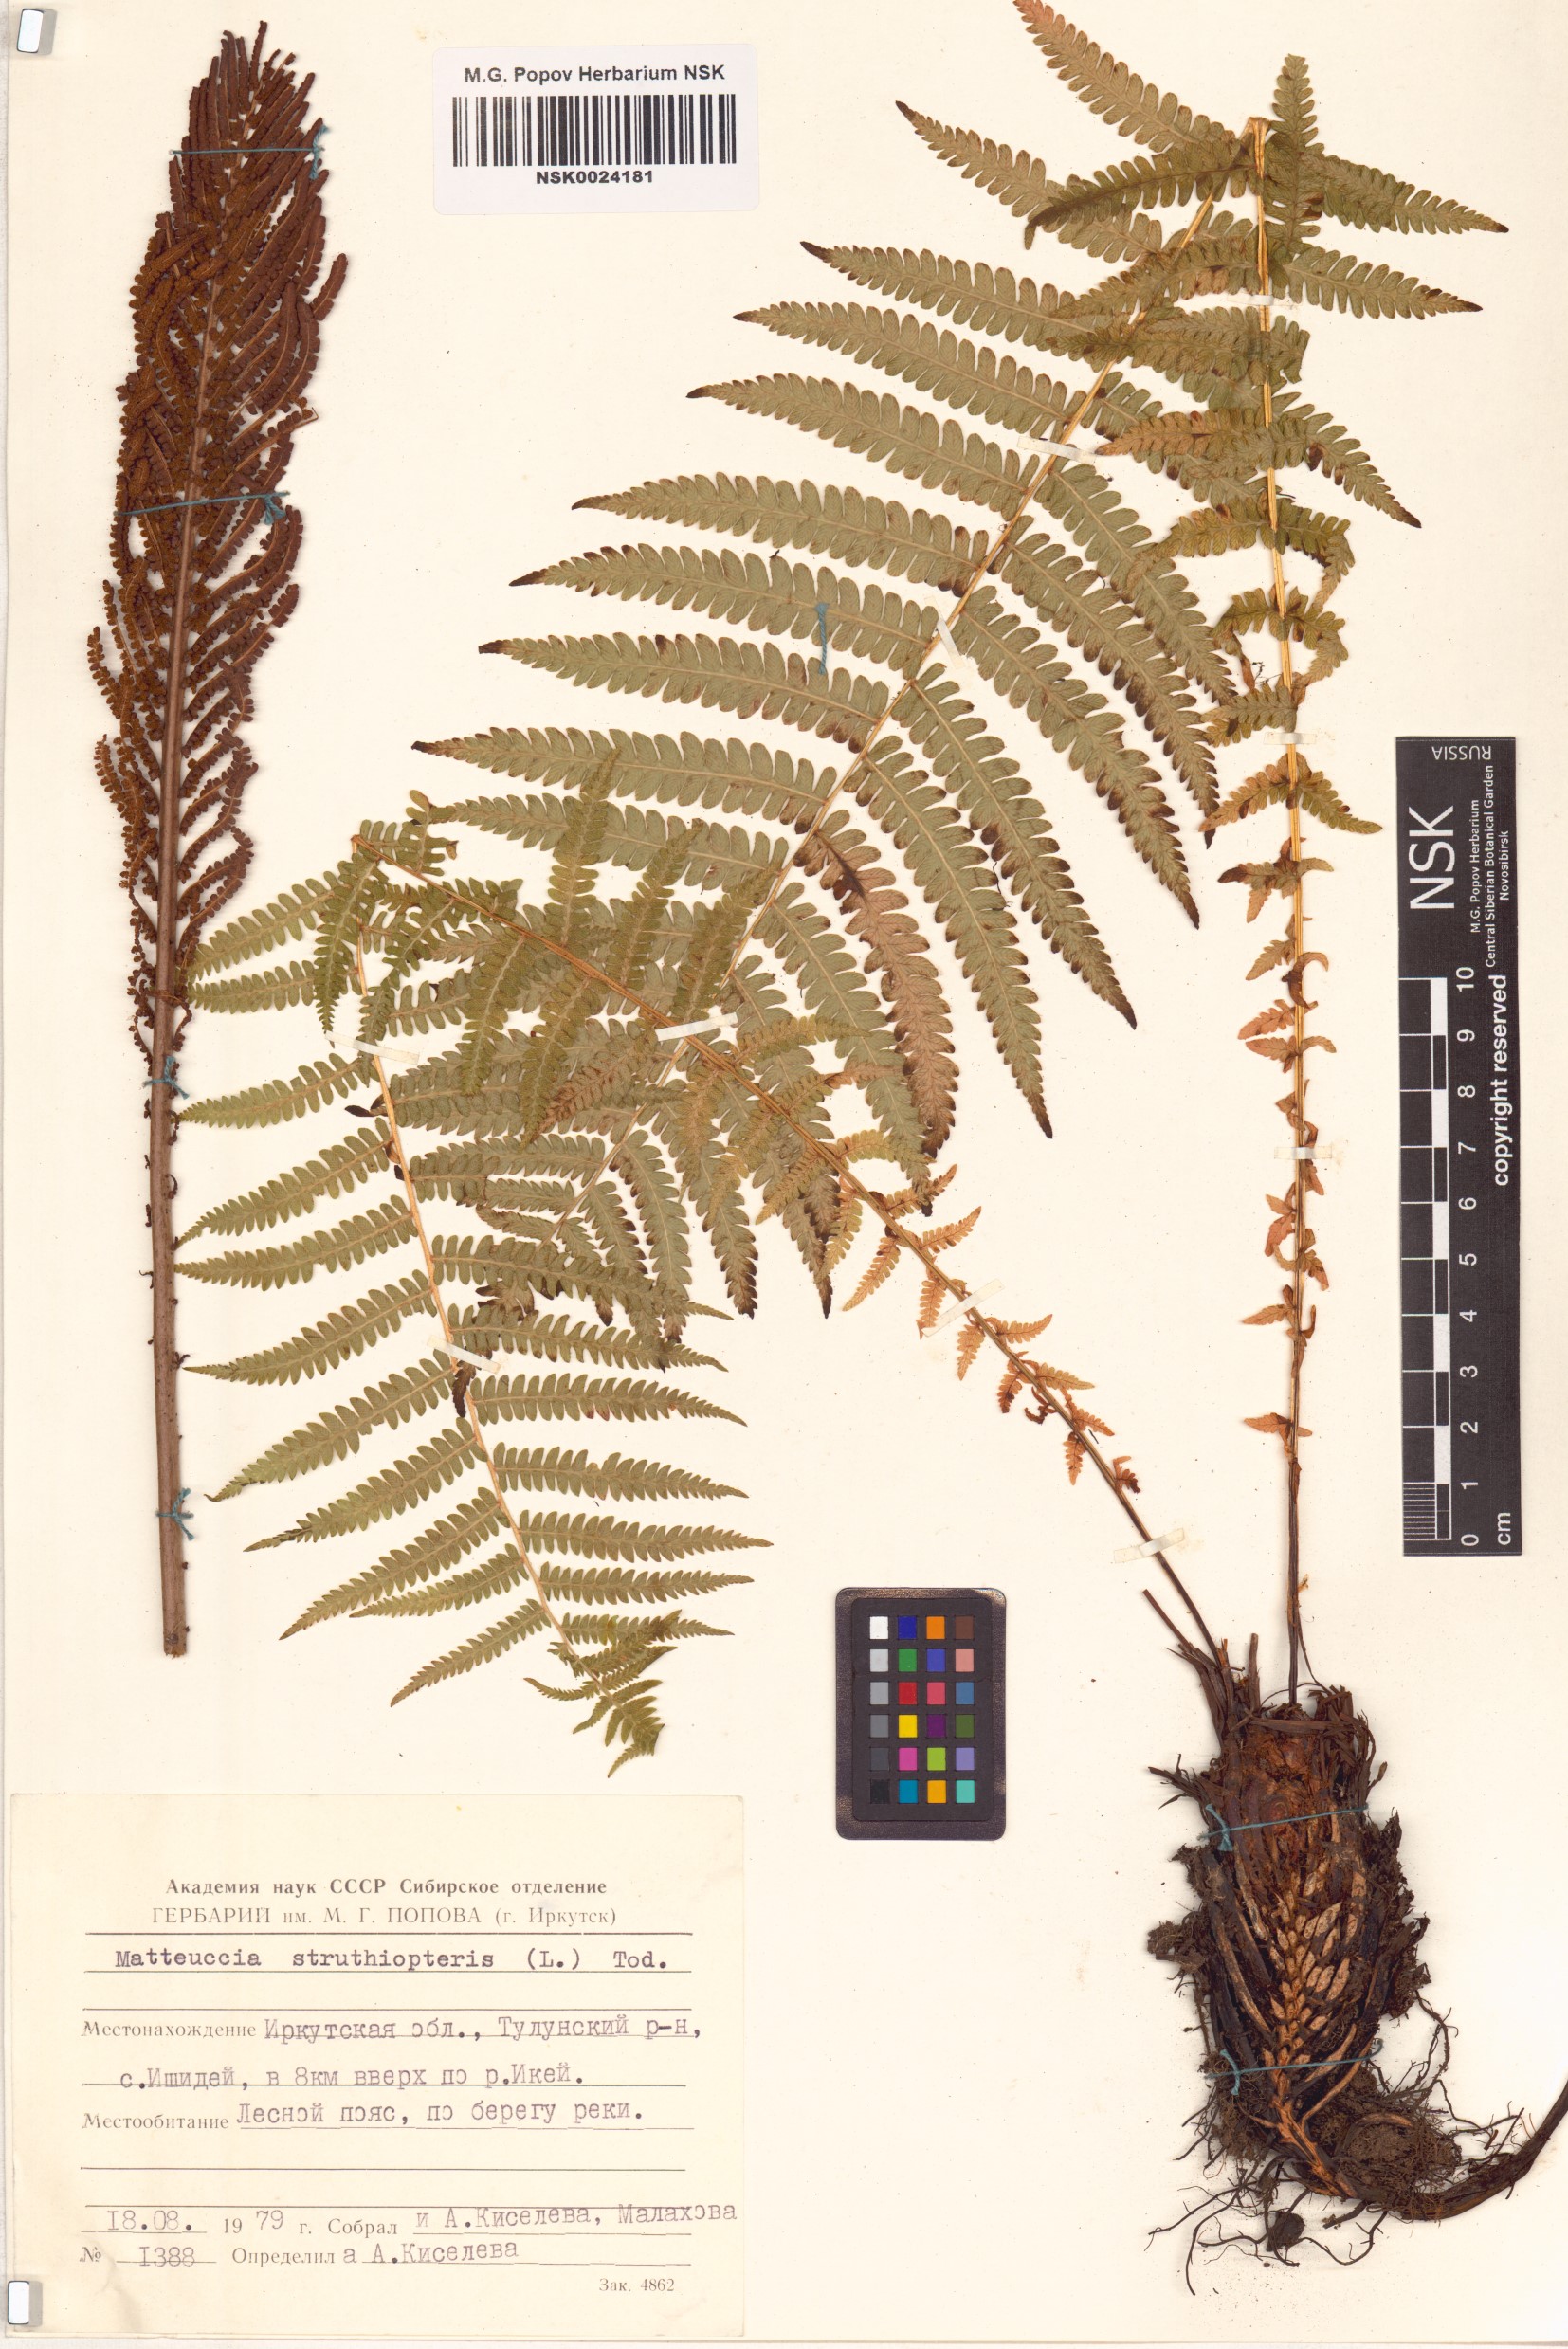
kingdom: Plantae
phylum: Tracheophyta
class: Polypodiopsida
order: Polypodiales
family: Onocleaceae
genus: Matteuccia
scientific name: Matteuccia struthiopteris
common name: Ostrich fern
